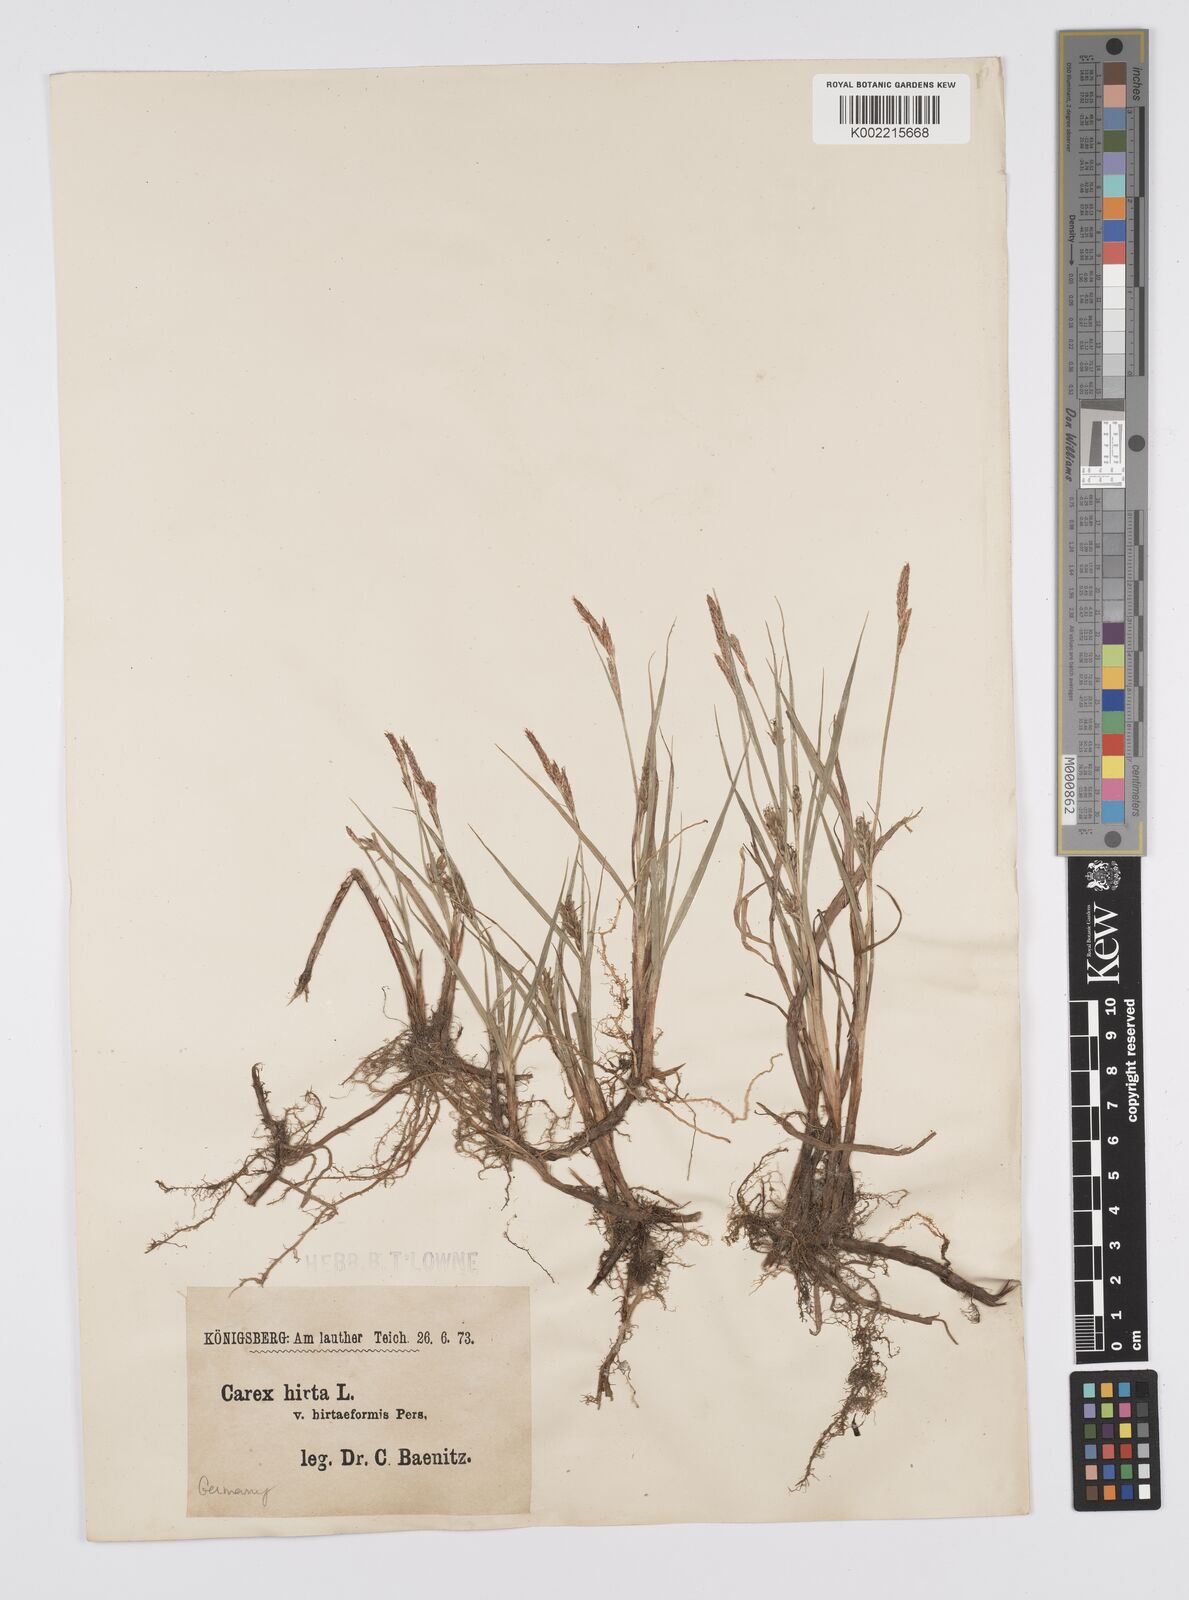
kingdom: Plantae
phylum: Tracheophyta
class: Liliopsida
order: Poales
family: Cyperaceae
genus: Carex
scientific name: Carex hirta
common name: Hairy sedge
